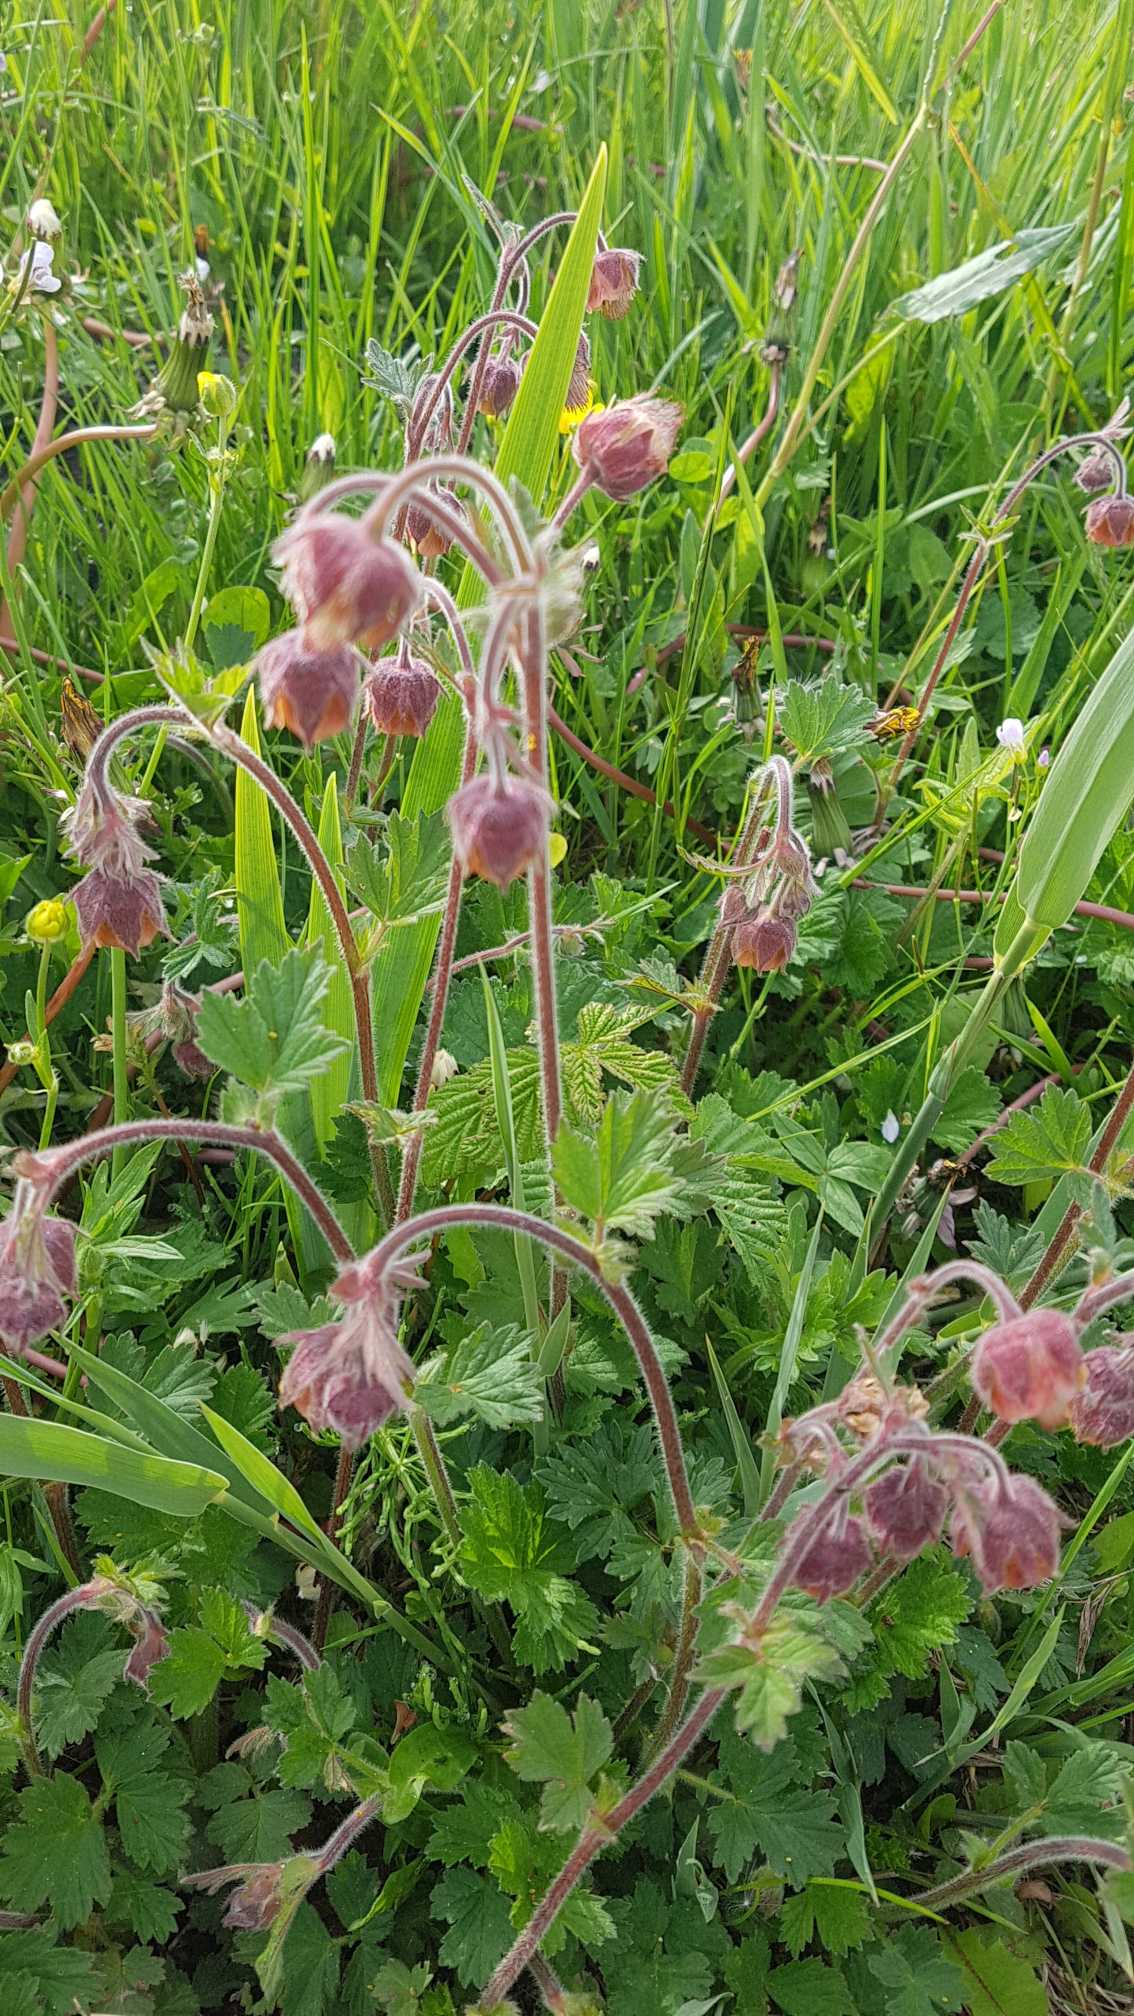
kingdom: Plantae
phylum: Tracheophyta
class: Magnoliopsida
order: Rosales
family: Rosaceae
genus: Geum
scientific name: Geum rivale
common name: Eng-nellikerod
